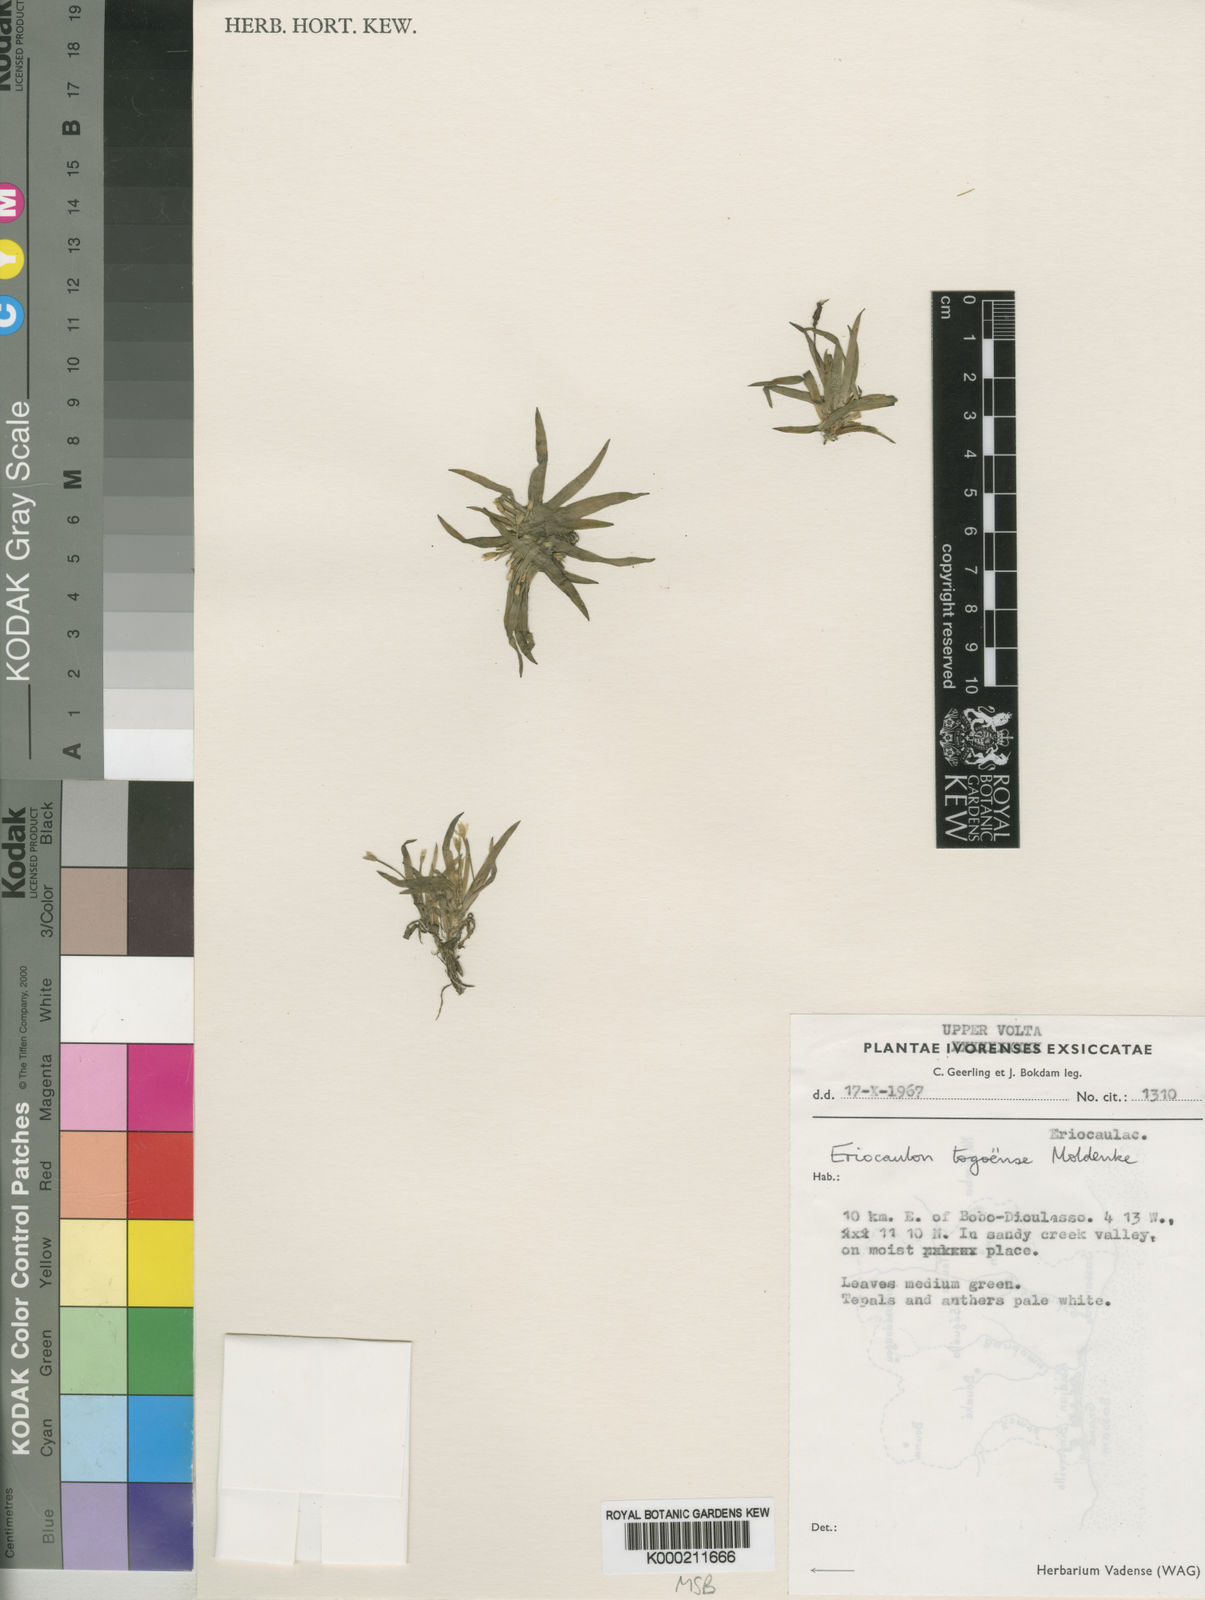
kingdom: Plantae
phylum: Tracheophyta
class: Liliopsida
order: Poales
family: Eriocaulaceae
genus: Eriocaulon
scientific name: Eriocaulon togoense
